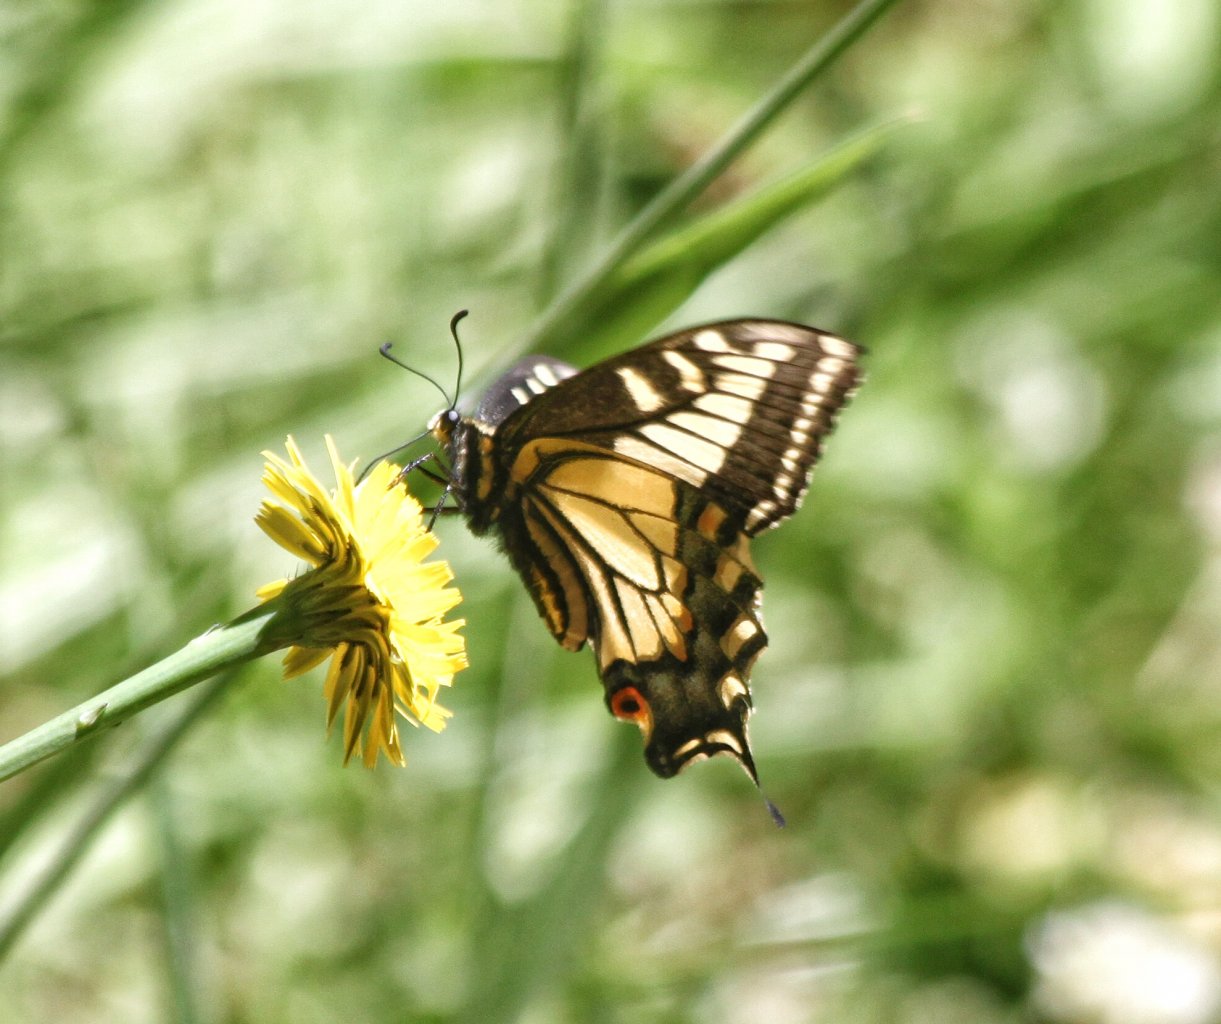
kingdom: Animalia
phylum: Arthropoda
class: Insecta
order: Lepidoptera
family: Papilionidae
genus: Papilio
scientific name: Papilio zelicaon
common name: Anise Swallowtail
